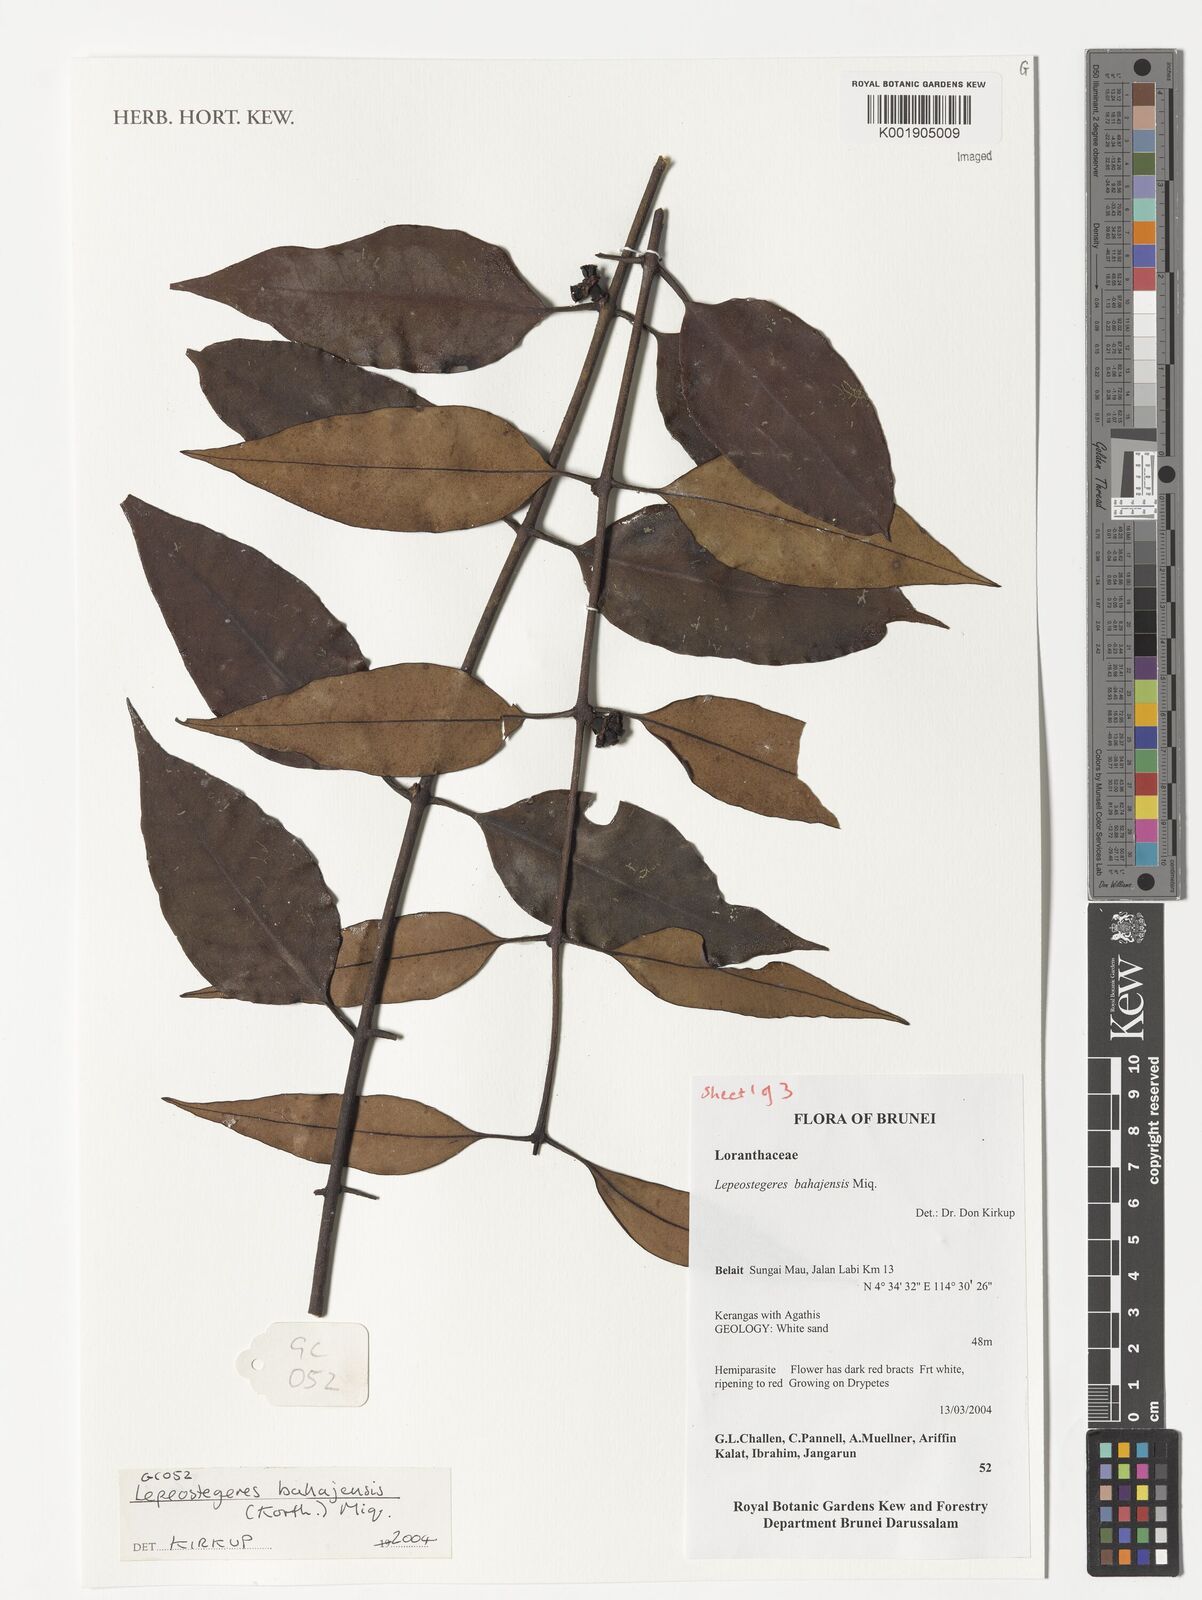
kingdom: Plantae
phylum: Tracheophyta
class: Magnoliopsida
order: Santalales
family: Loranthaceae
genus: Lepeostegeres
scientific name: Lepeostegeres bahajensis
